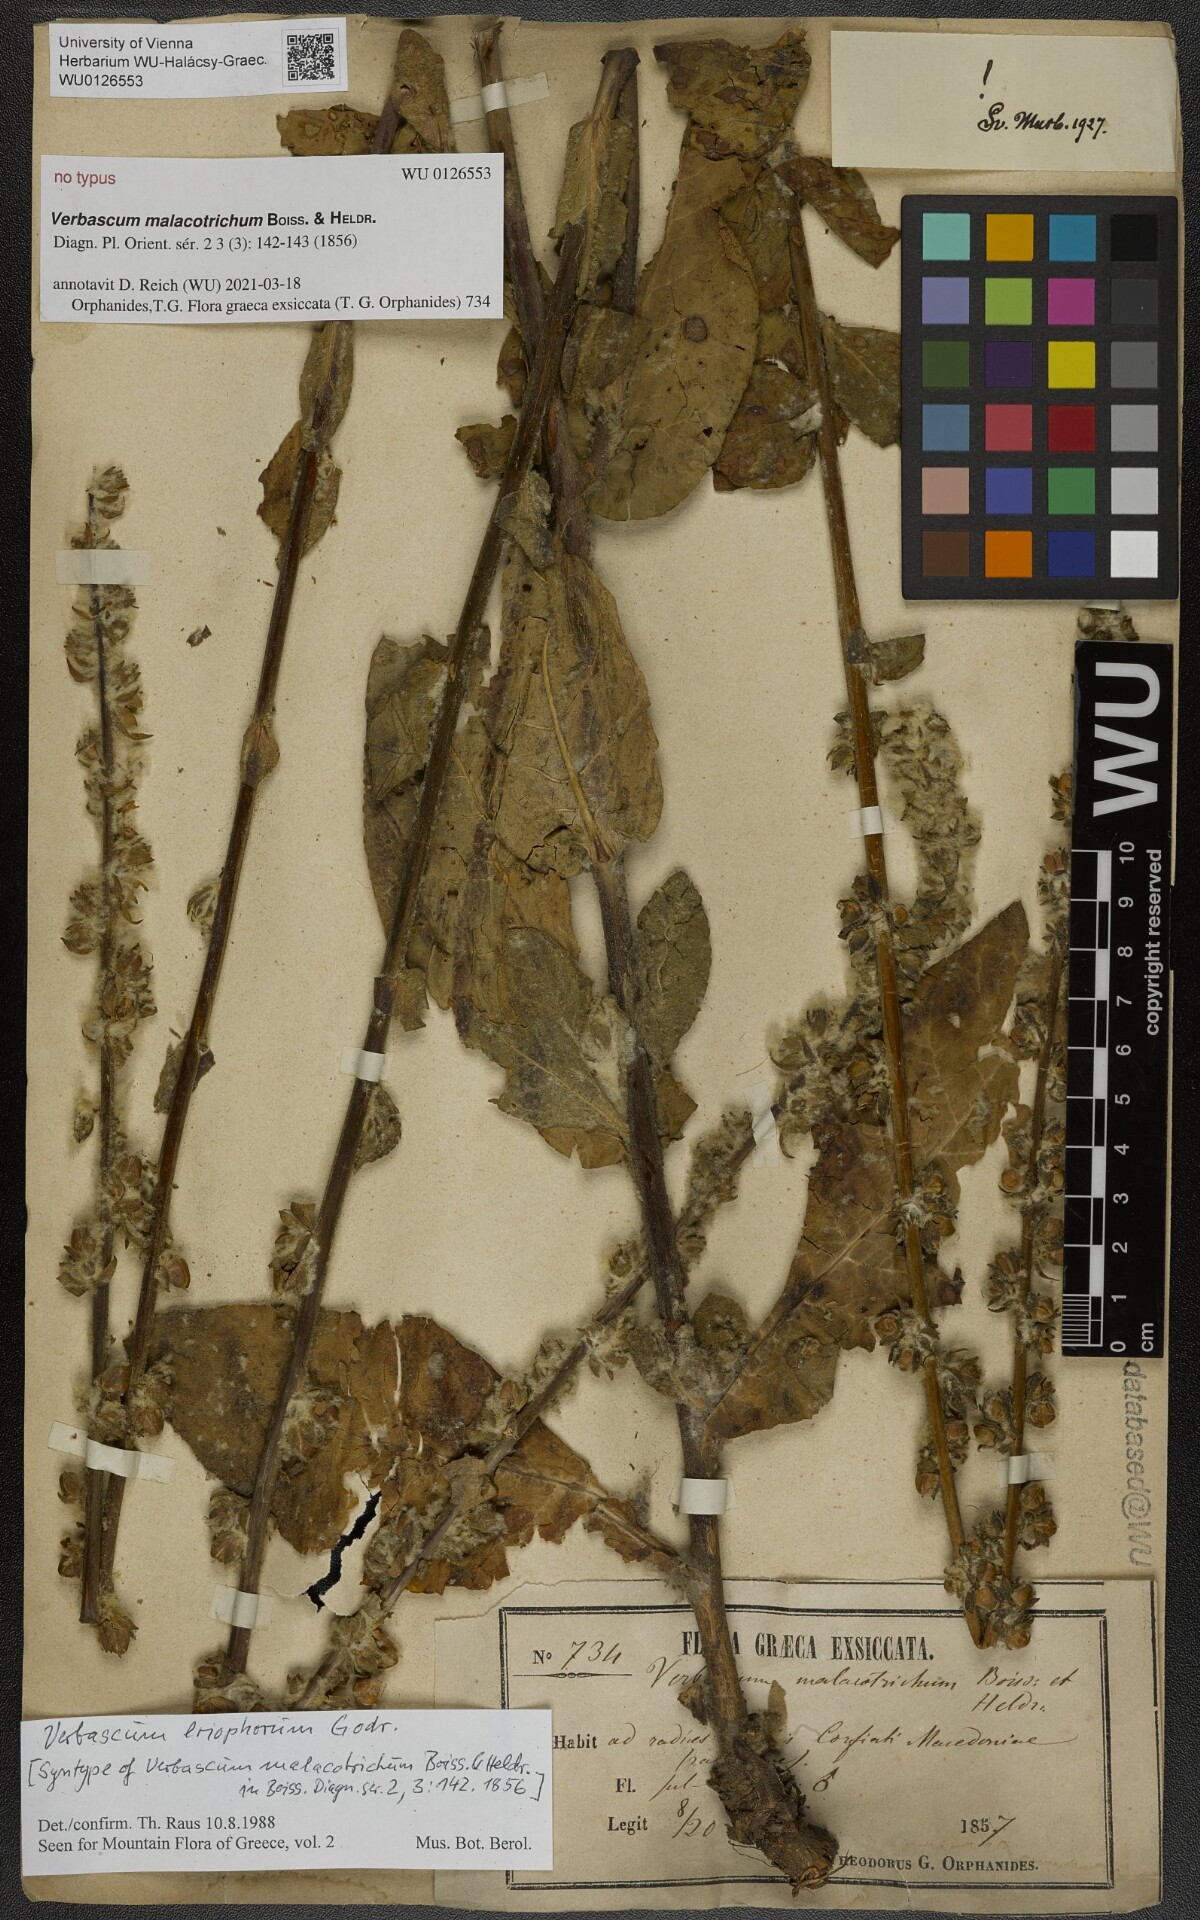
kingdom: Plantae
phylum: Tracheophyta
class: Magnoliopsida
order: Lamiales
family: Scrophulariaceae
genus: Verbascum
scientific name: Verbascum eriophorum
